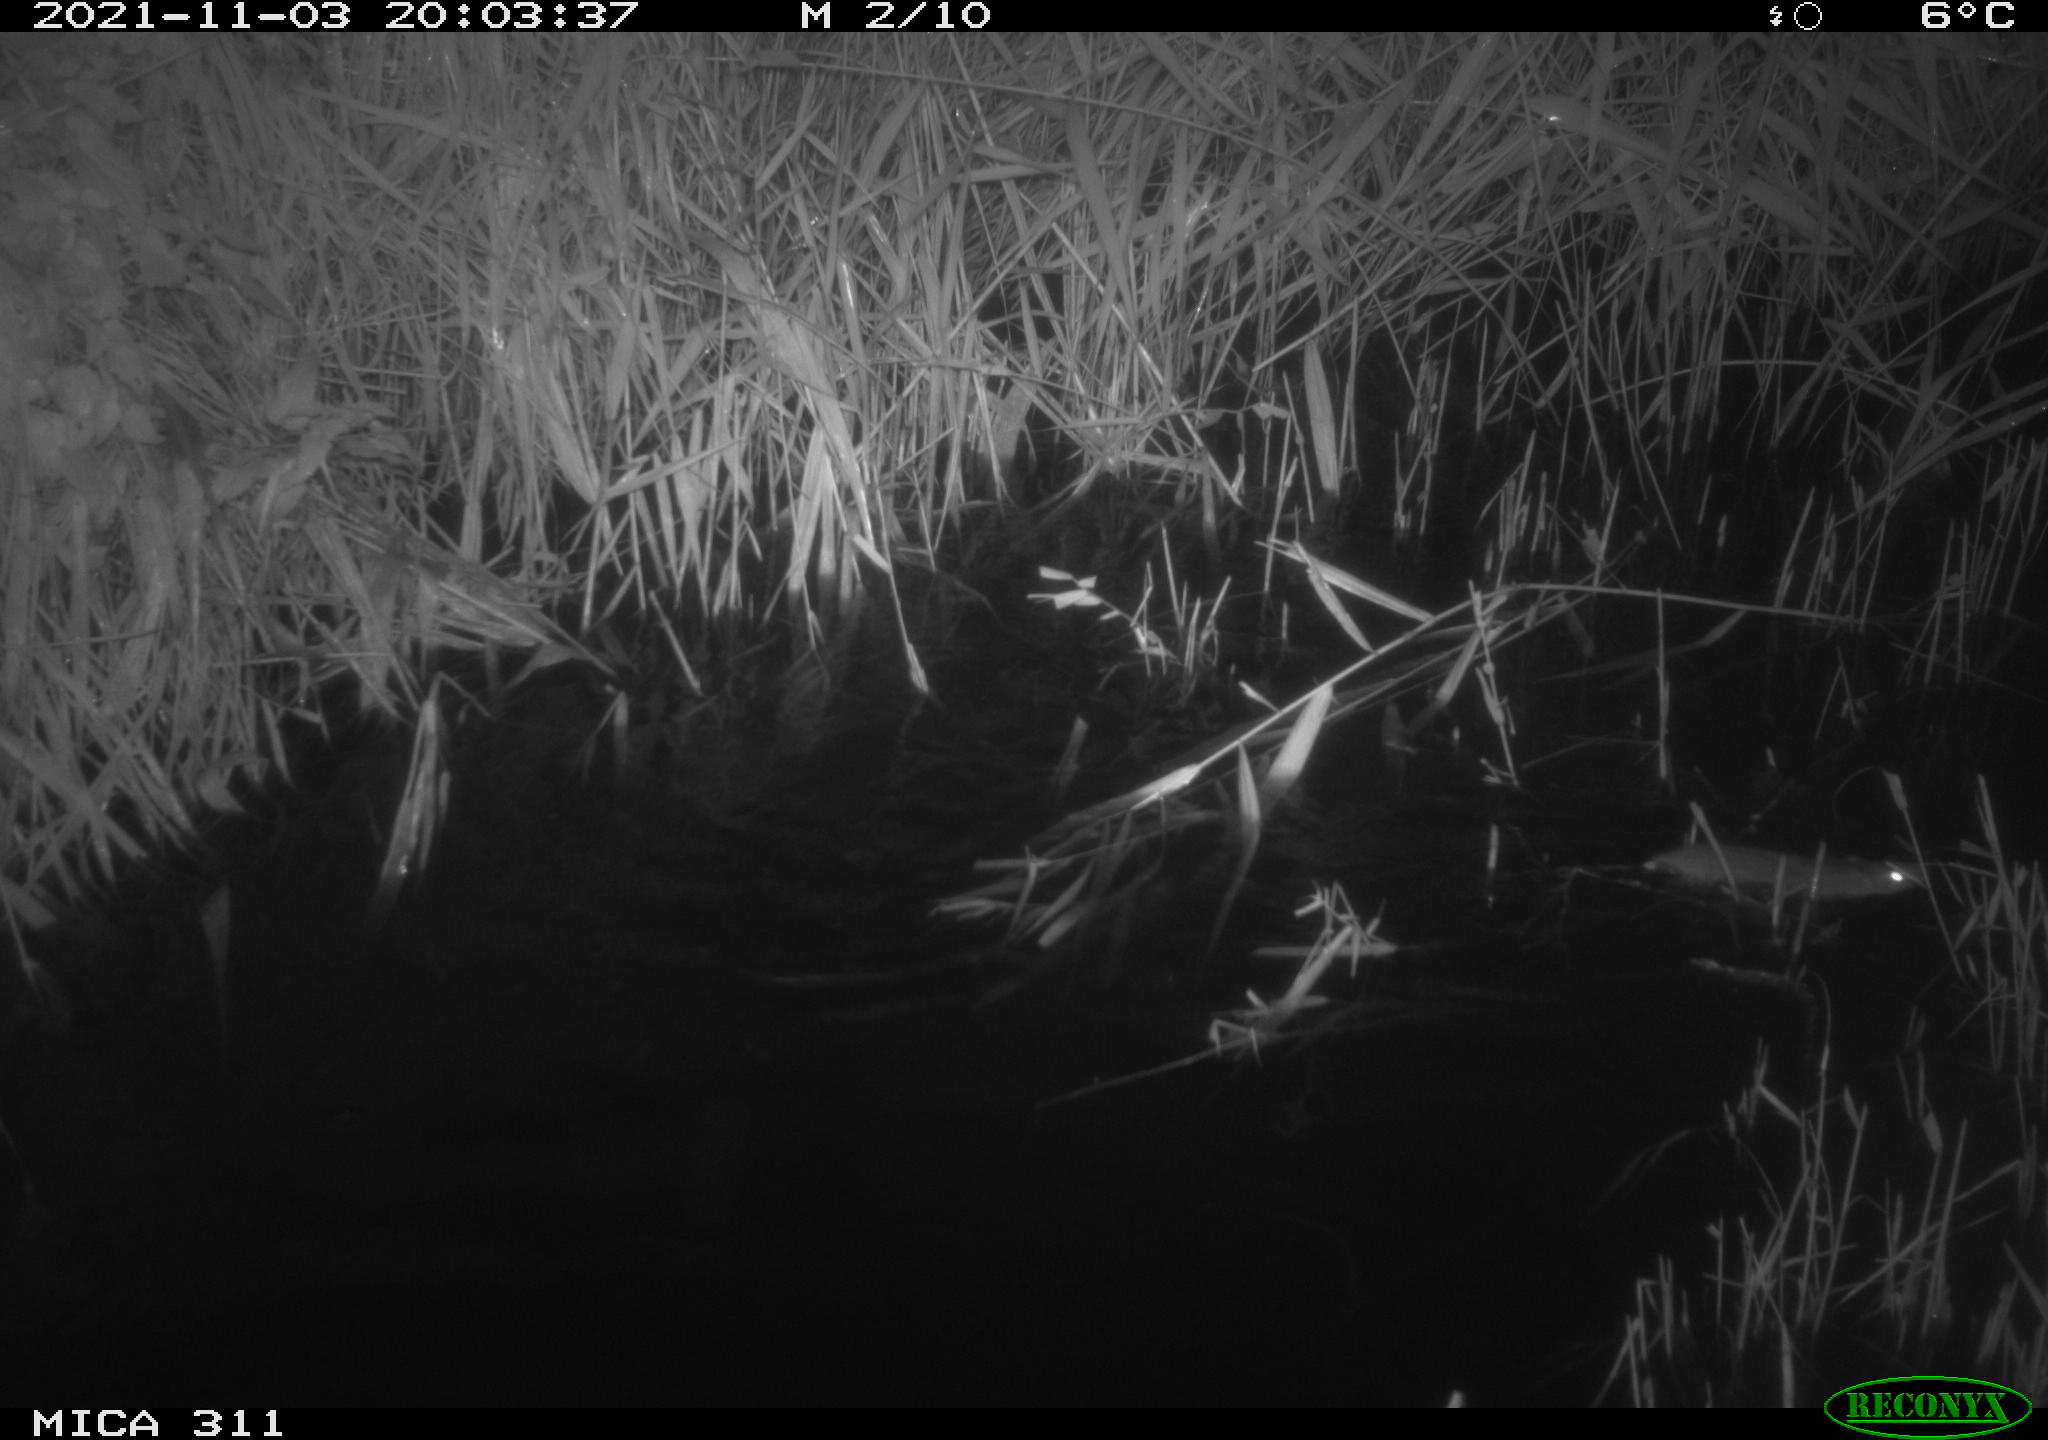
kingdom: Animalia
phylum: Chordata
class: Mammalia
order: Rodentia
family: Muridae
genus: Rattus
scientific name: Rattus norvegicus
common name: Brown rat
